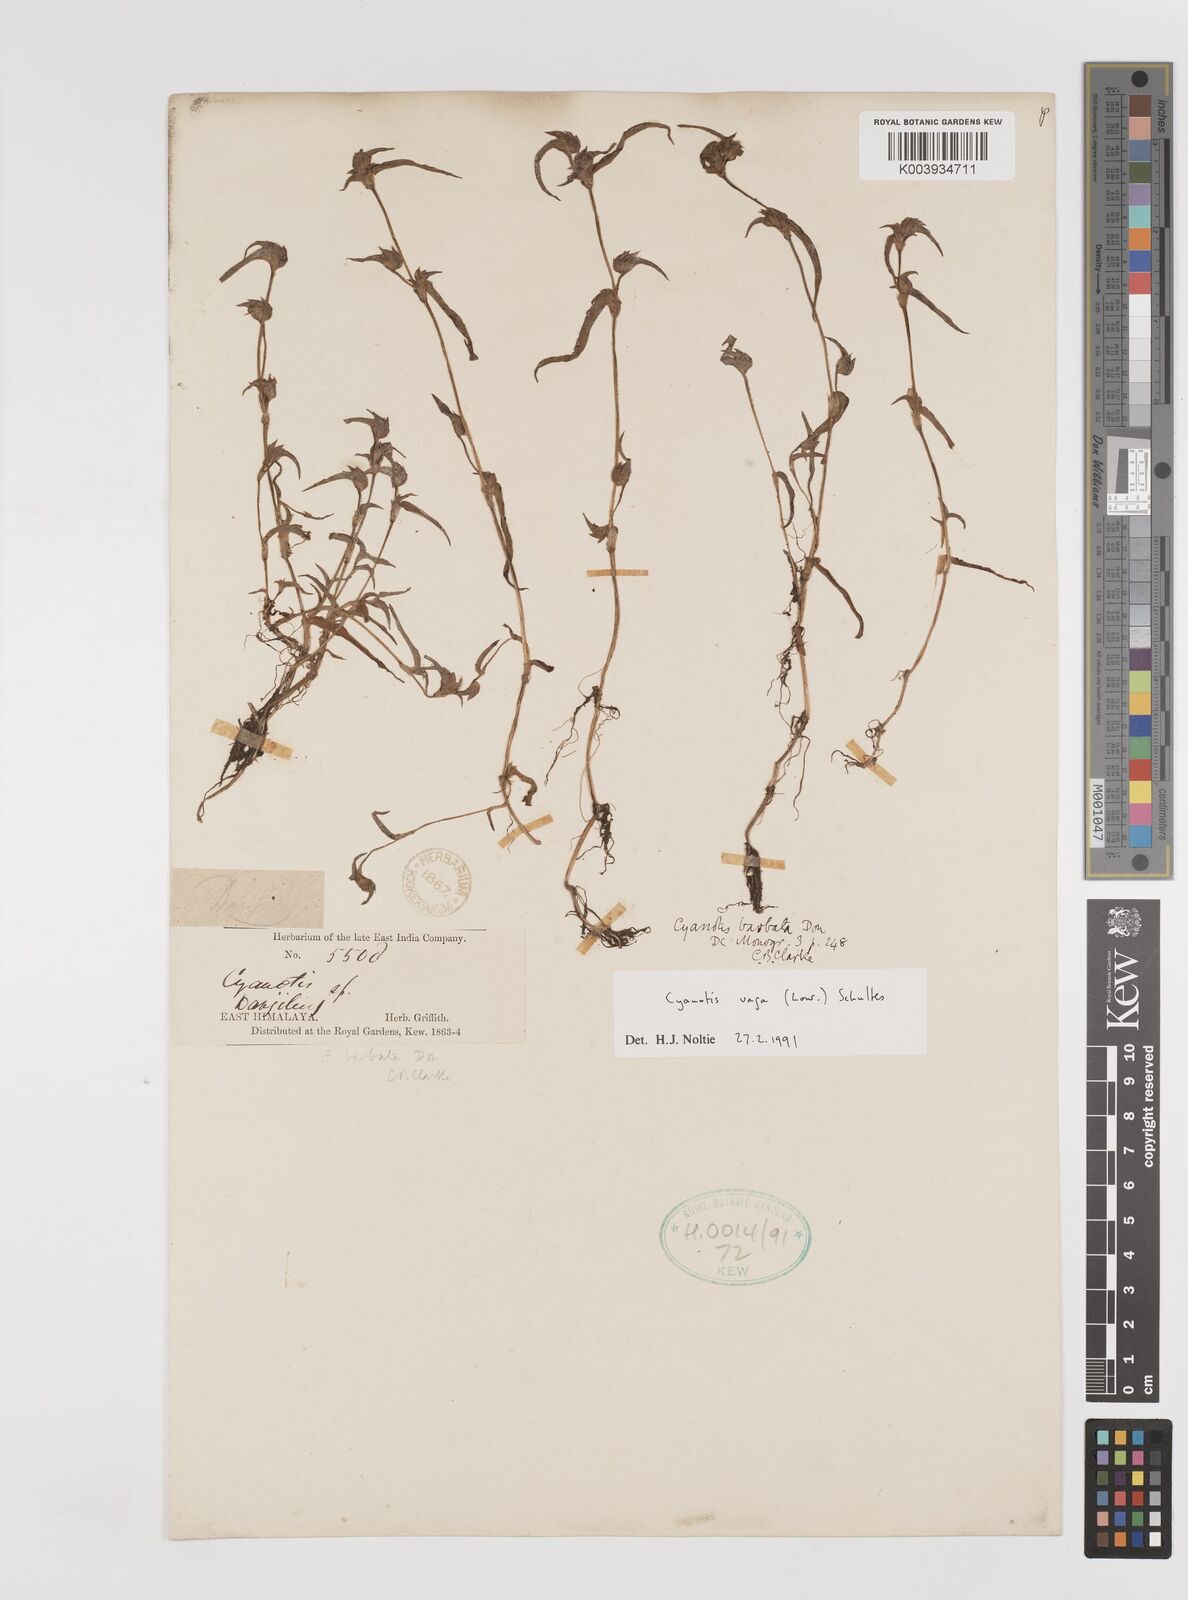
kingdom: Plantae
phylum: Tracheophyta
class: Liliopsida
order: Commelinales
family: Commelinaceae
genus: Cyanotis
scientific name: Cyanotis vaga
